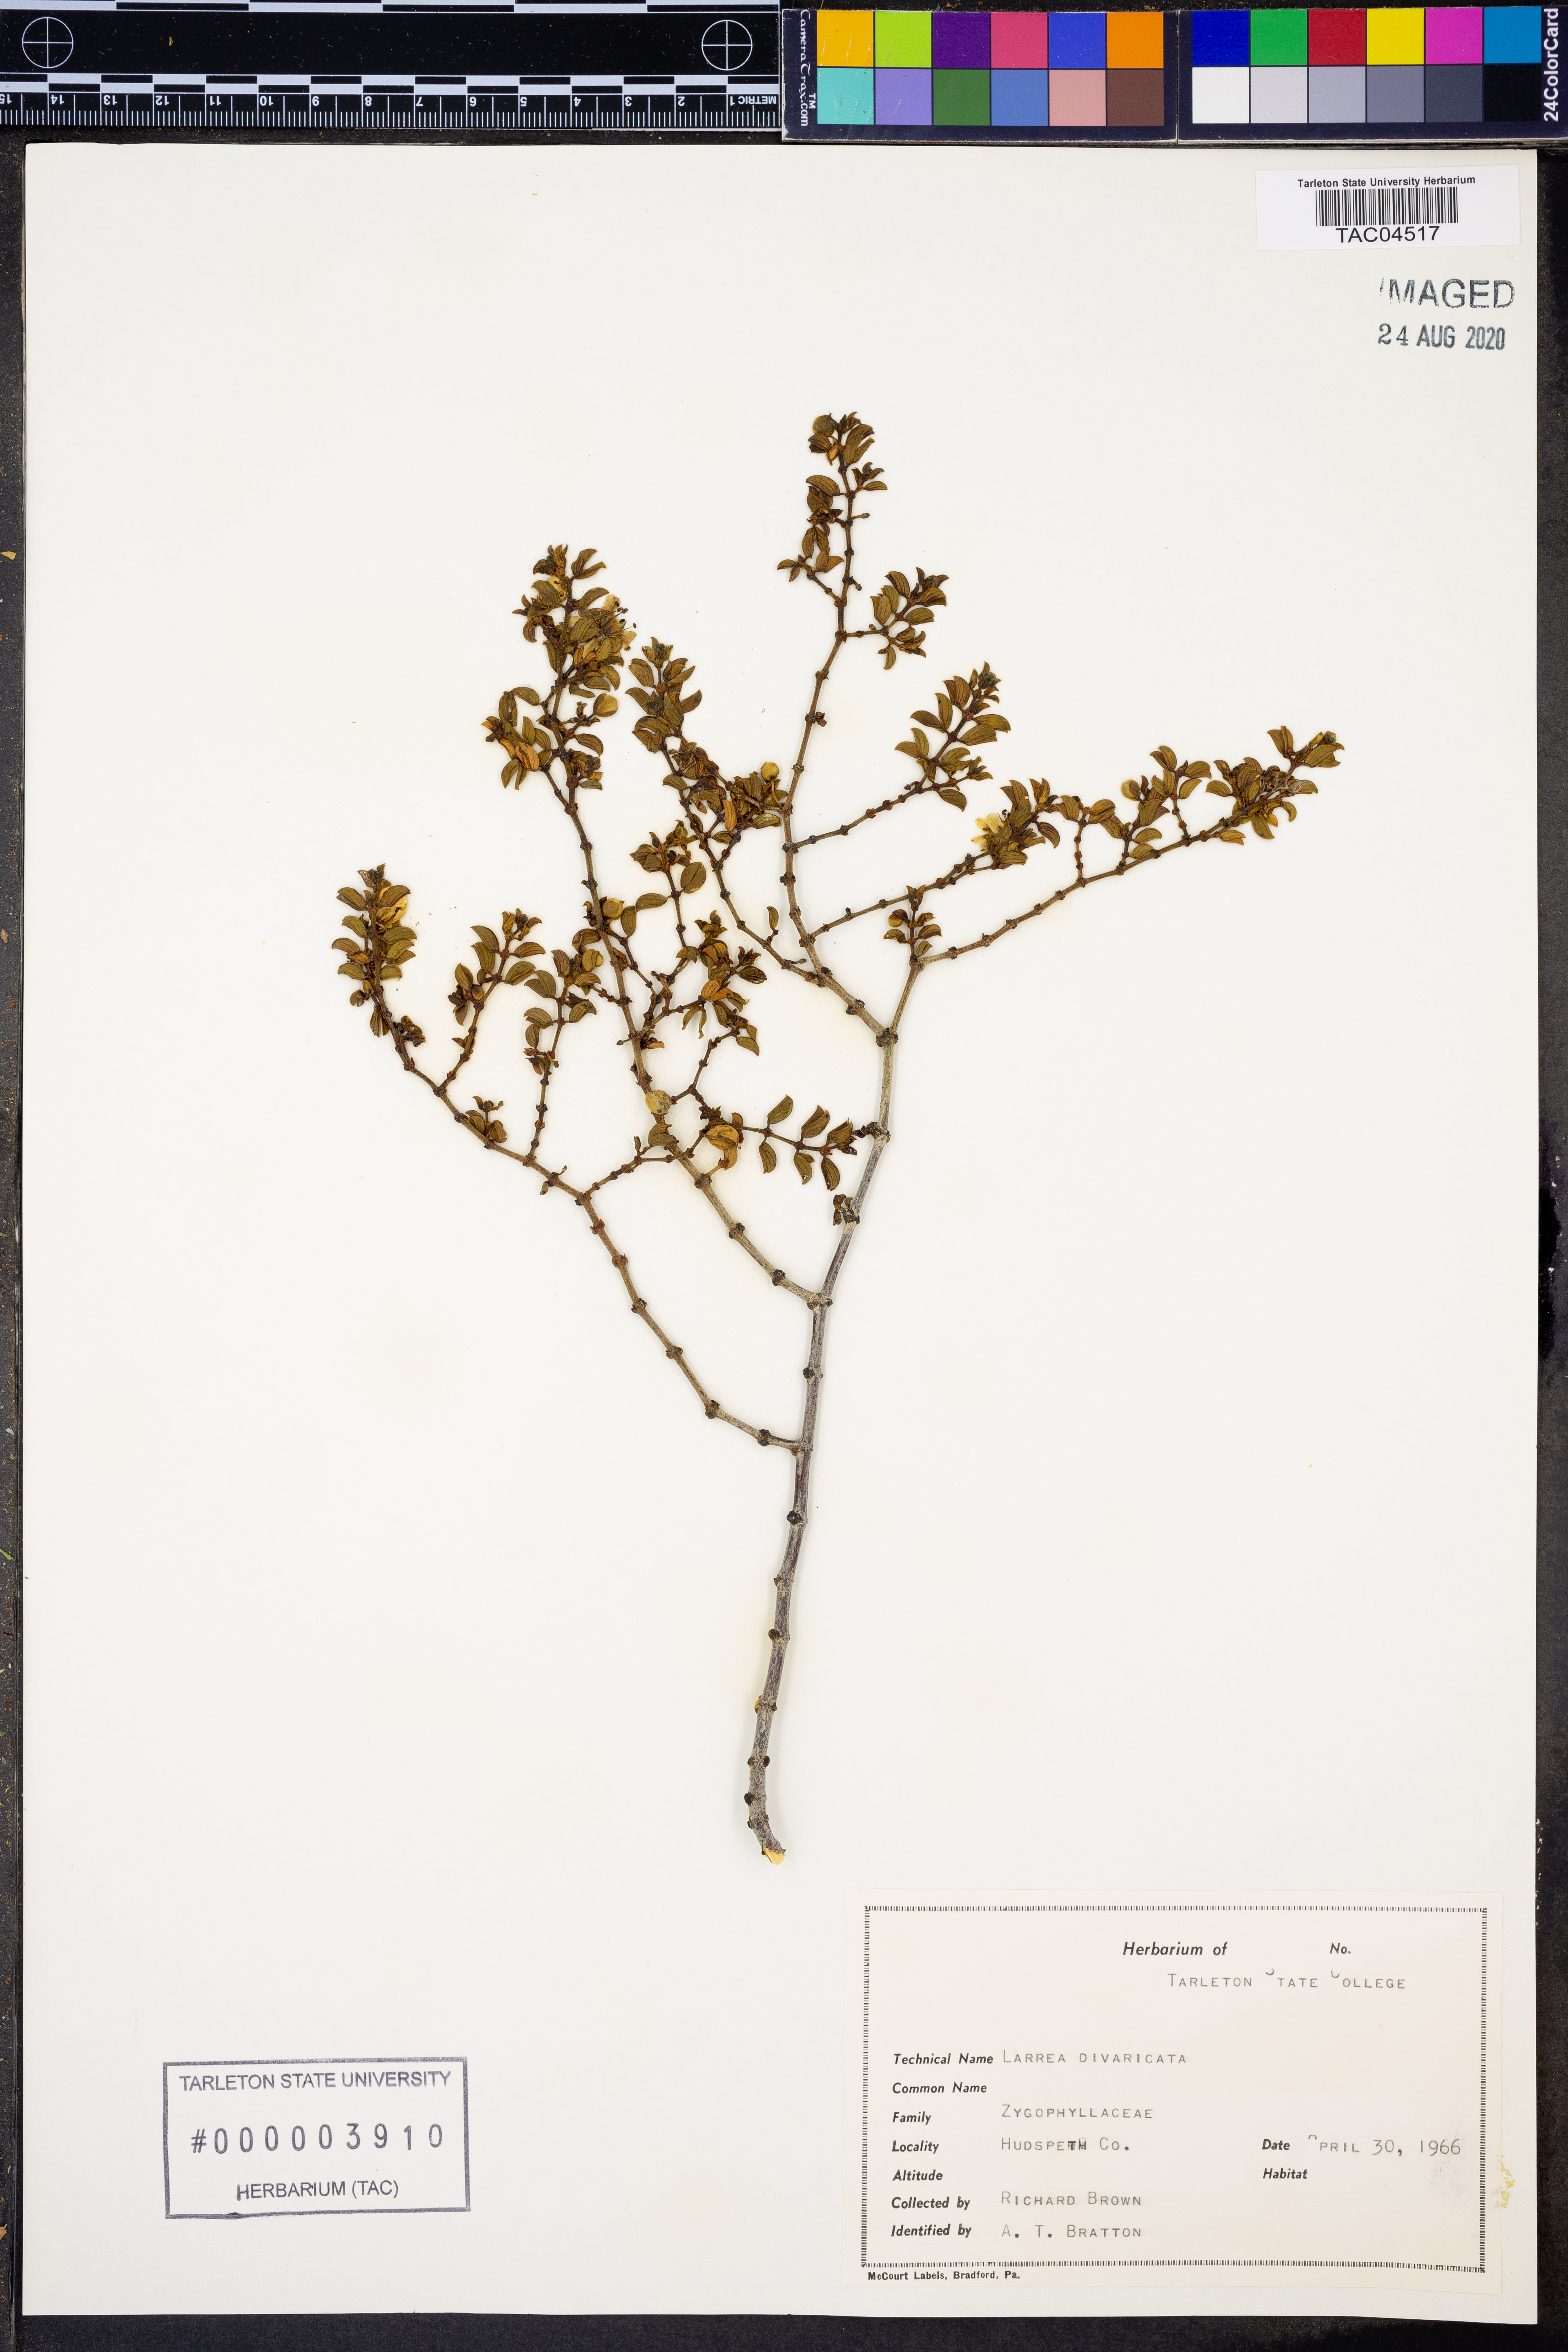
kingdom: Plantae
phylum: Tracheophyta
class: Magnoliopsida
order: Zygophyllales
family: Zygophyllaceae
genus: Larrea
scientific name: Larrea divaricata
